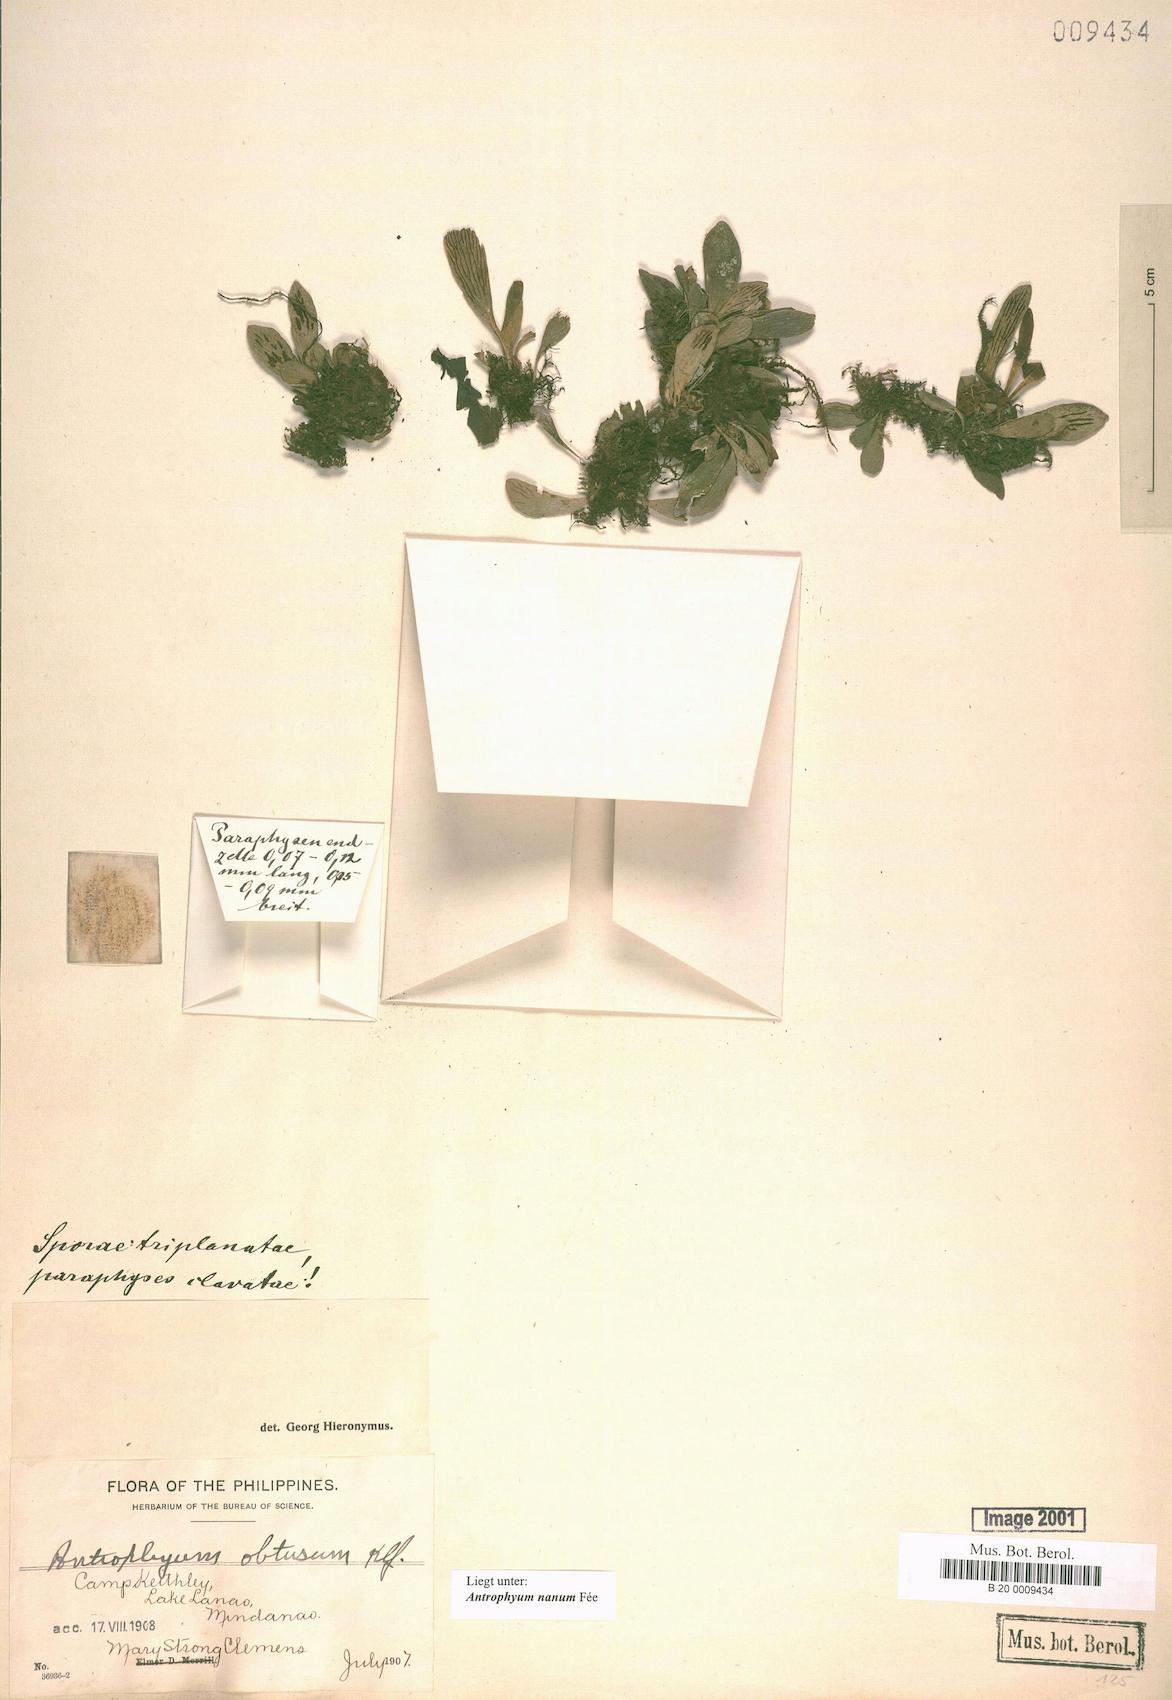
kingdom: Plantae
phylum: Tracheophyta
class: Polypodiopsida
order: Polypodiales
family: Pteridaceae
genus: Antrophyum
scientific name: Antrophyum callifolium
